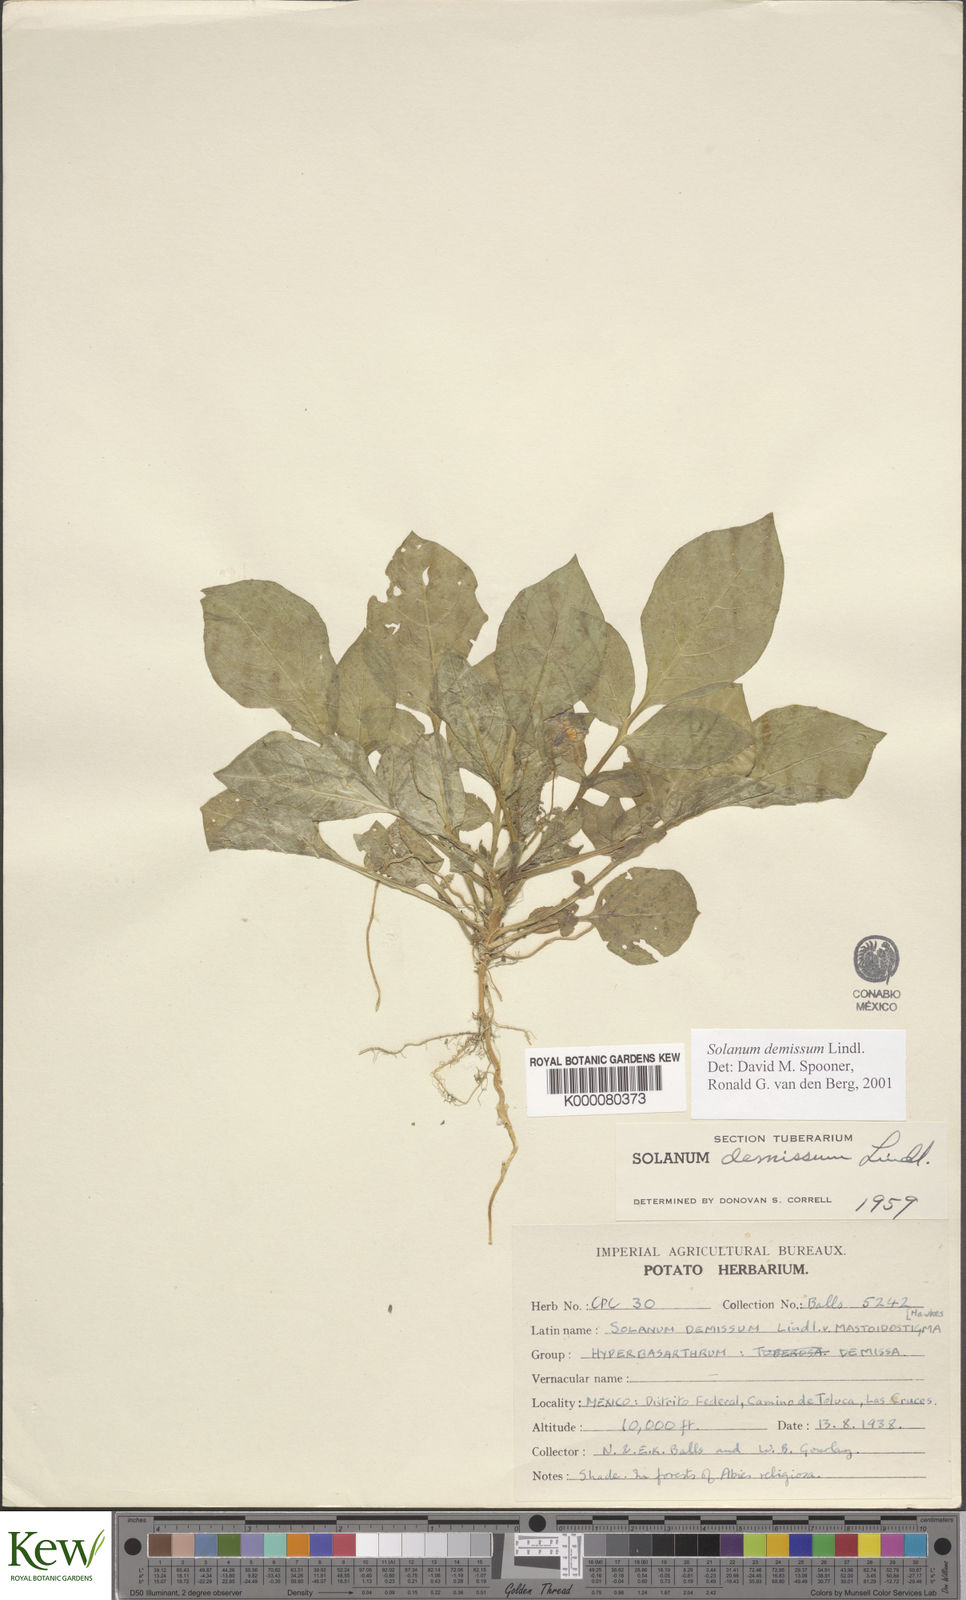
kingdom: Plantae
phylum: Tracheophyta
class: Magnoliopsida
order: Solanales
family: Solanaceae
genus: Solanum
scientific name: Solanum demissum
